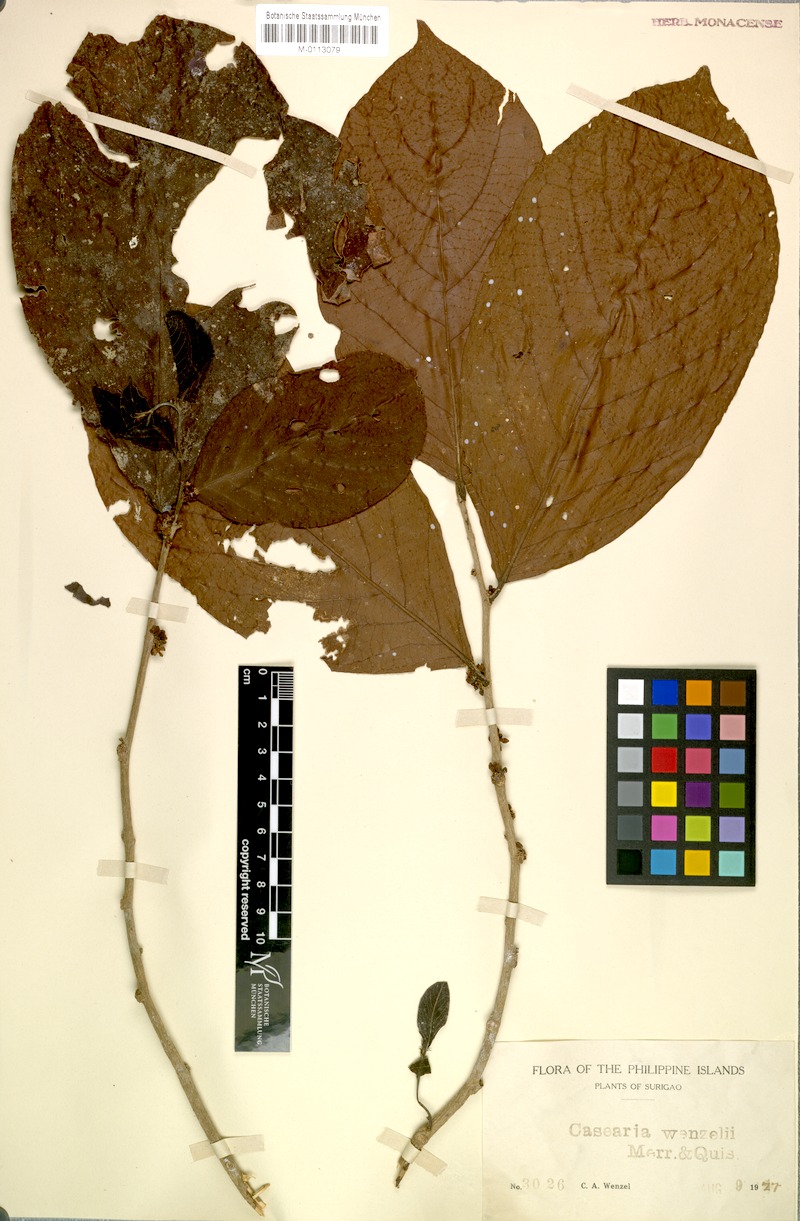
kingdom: Plantae
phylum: Tracheophyta
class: Magnoliopsida
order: Malpighiales
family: Salicaceae
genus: Casearia
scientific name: Casearia phanerophlebia
